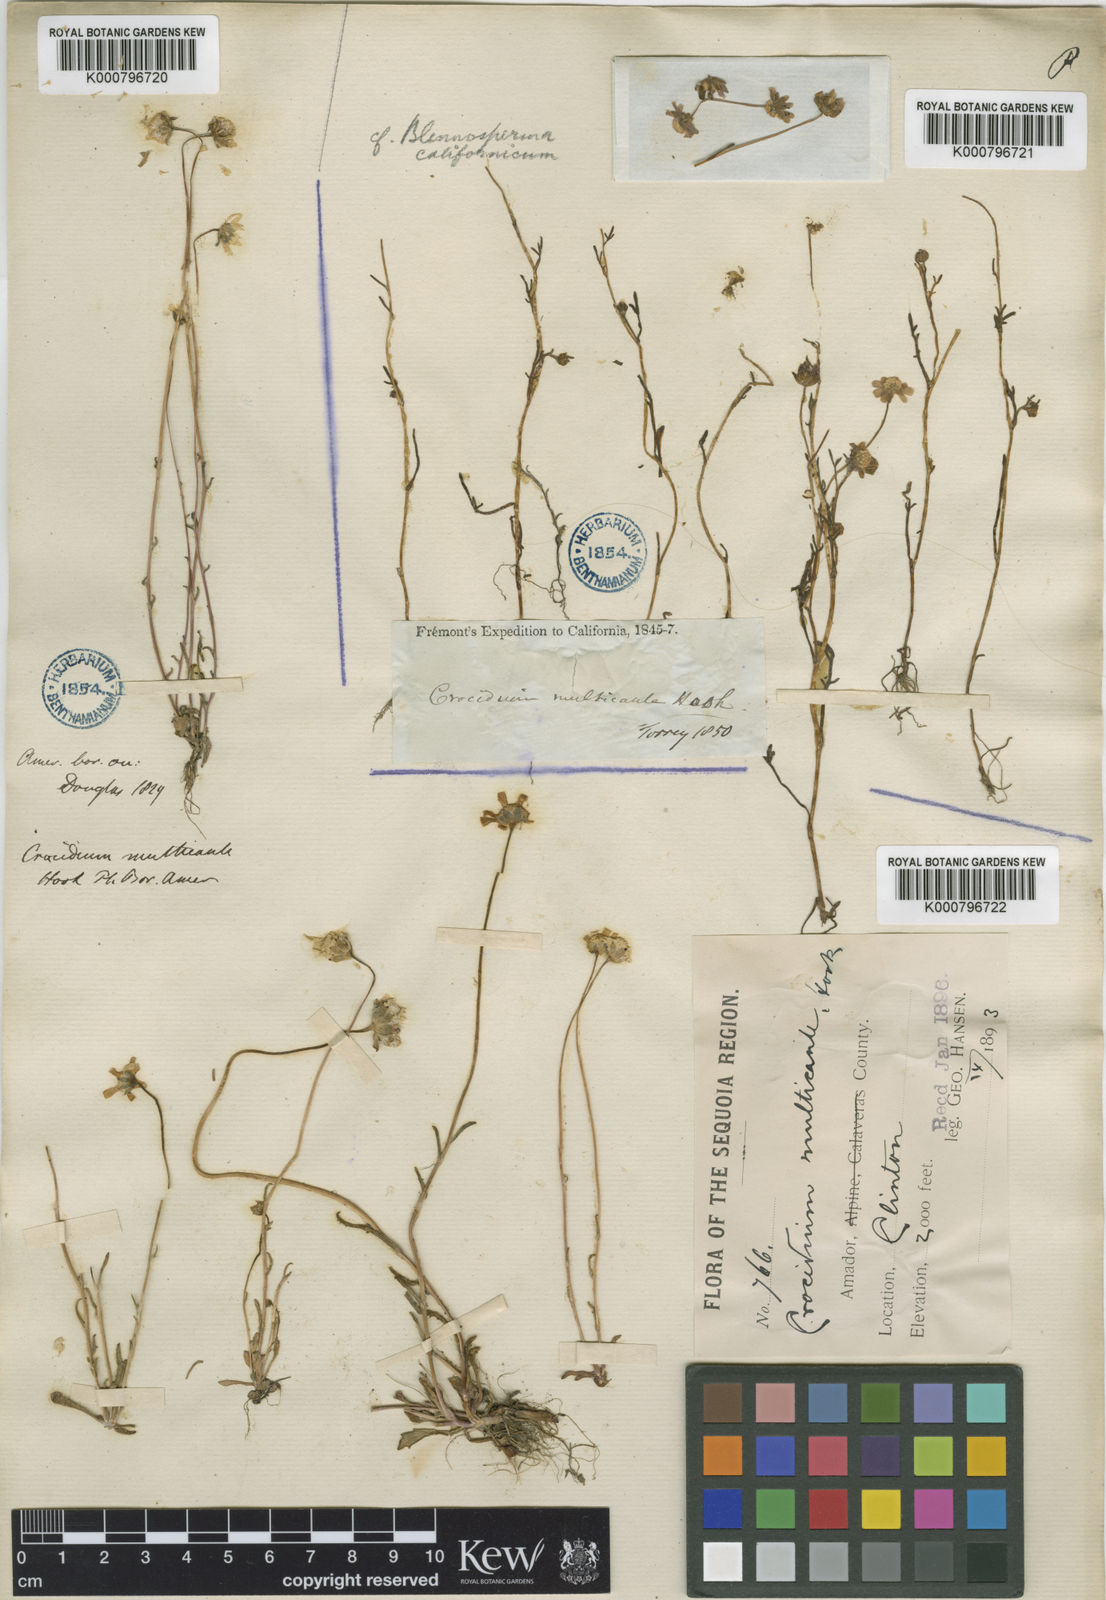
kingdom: Plantae
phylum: Tracheophyta
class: Magnoliopsida
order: Asterales
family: Asteraceae
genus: Crocidium
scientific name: Crocidium multicaule
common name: Common spring gold
